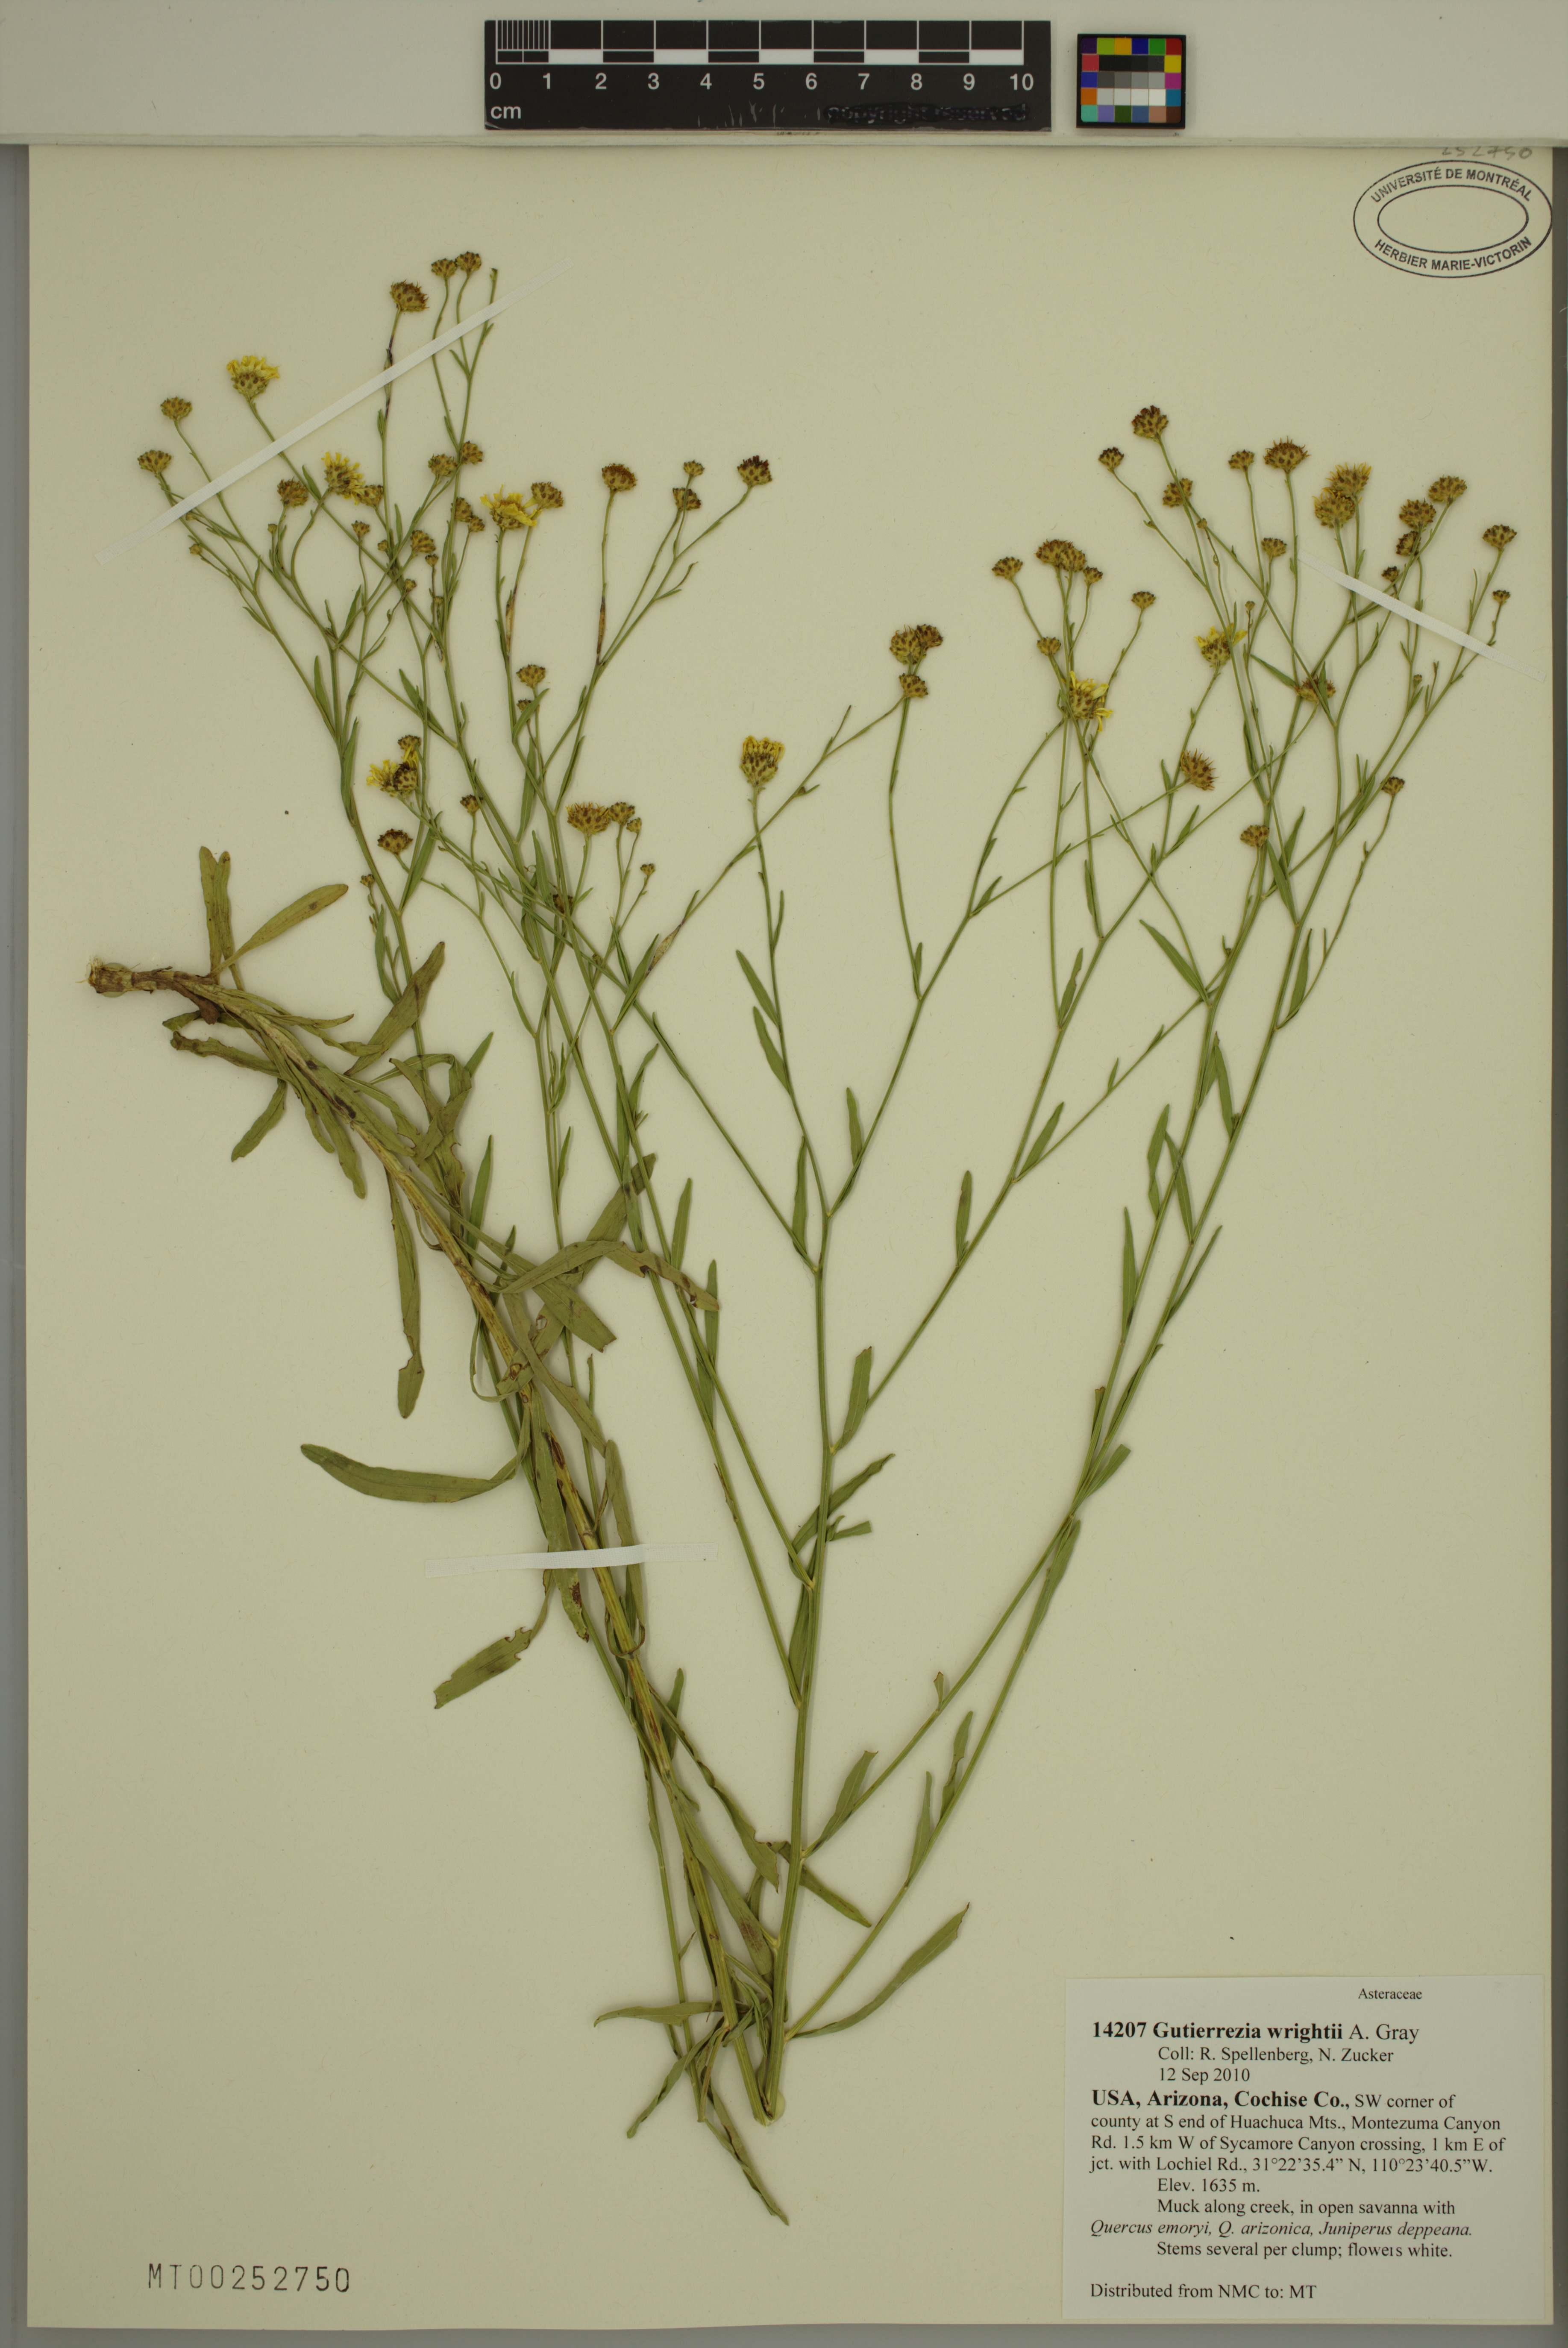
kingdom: Plantae
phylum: Tracheophyta
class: Magnoliopsida
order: Asterales
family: Asteraceae
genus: Gutierrezia
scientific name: Gutierrezia wrightii
